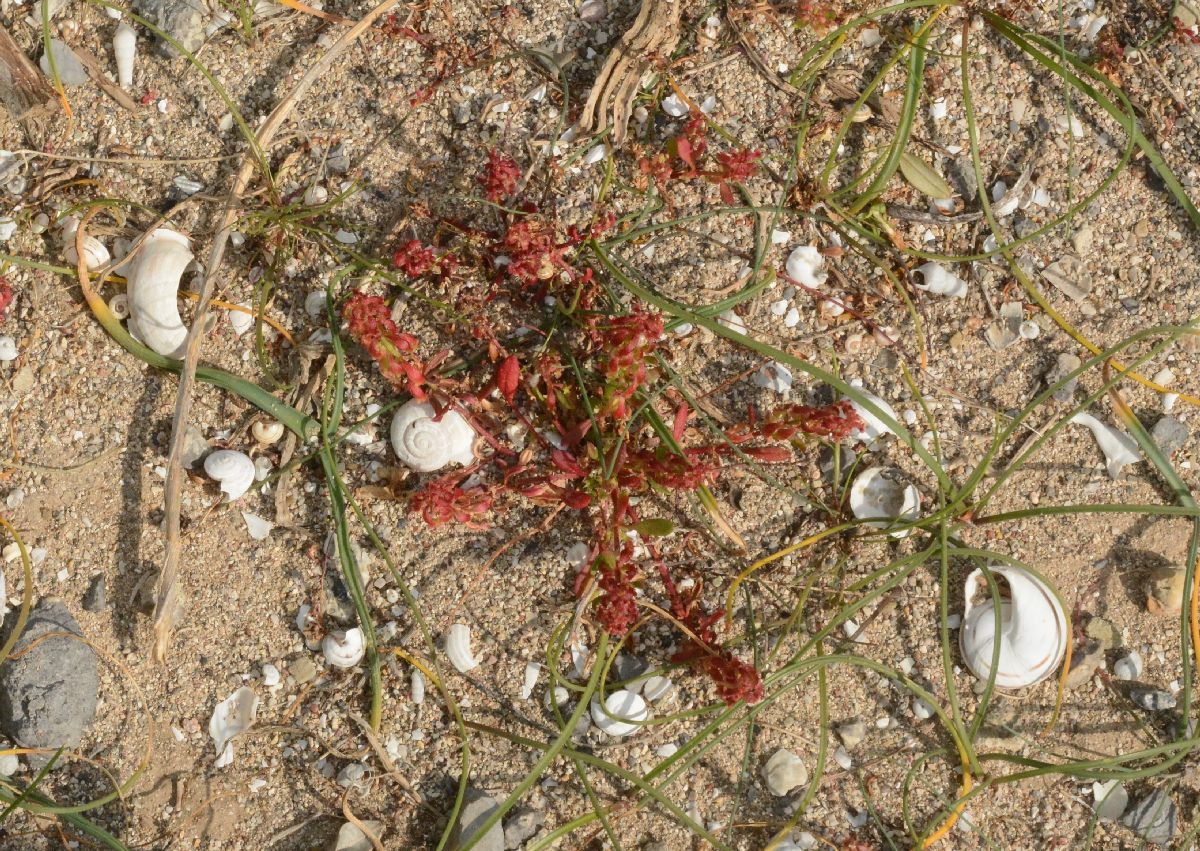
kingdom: Plantae
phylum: Tracheophyta
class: Magnoliopsida
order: Caryophyllales
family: Polygonaceae
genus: Rumex
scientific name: Rumex bucephalophorus
